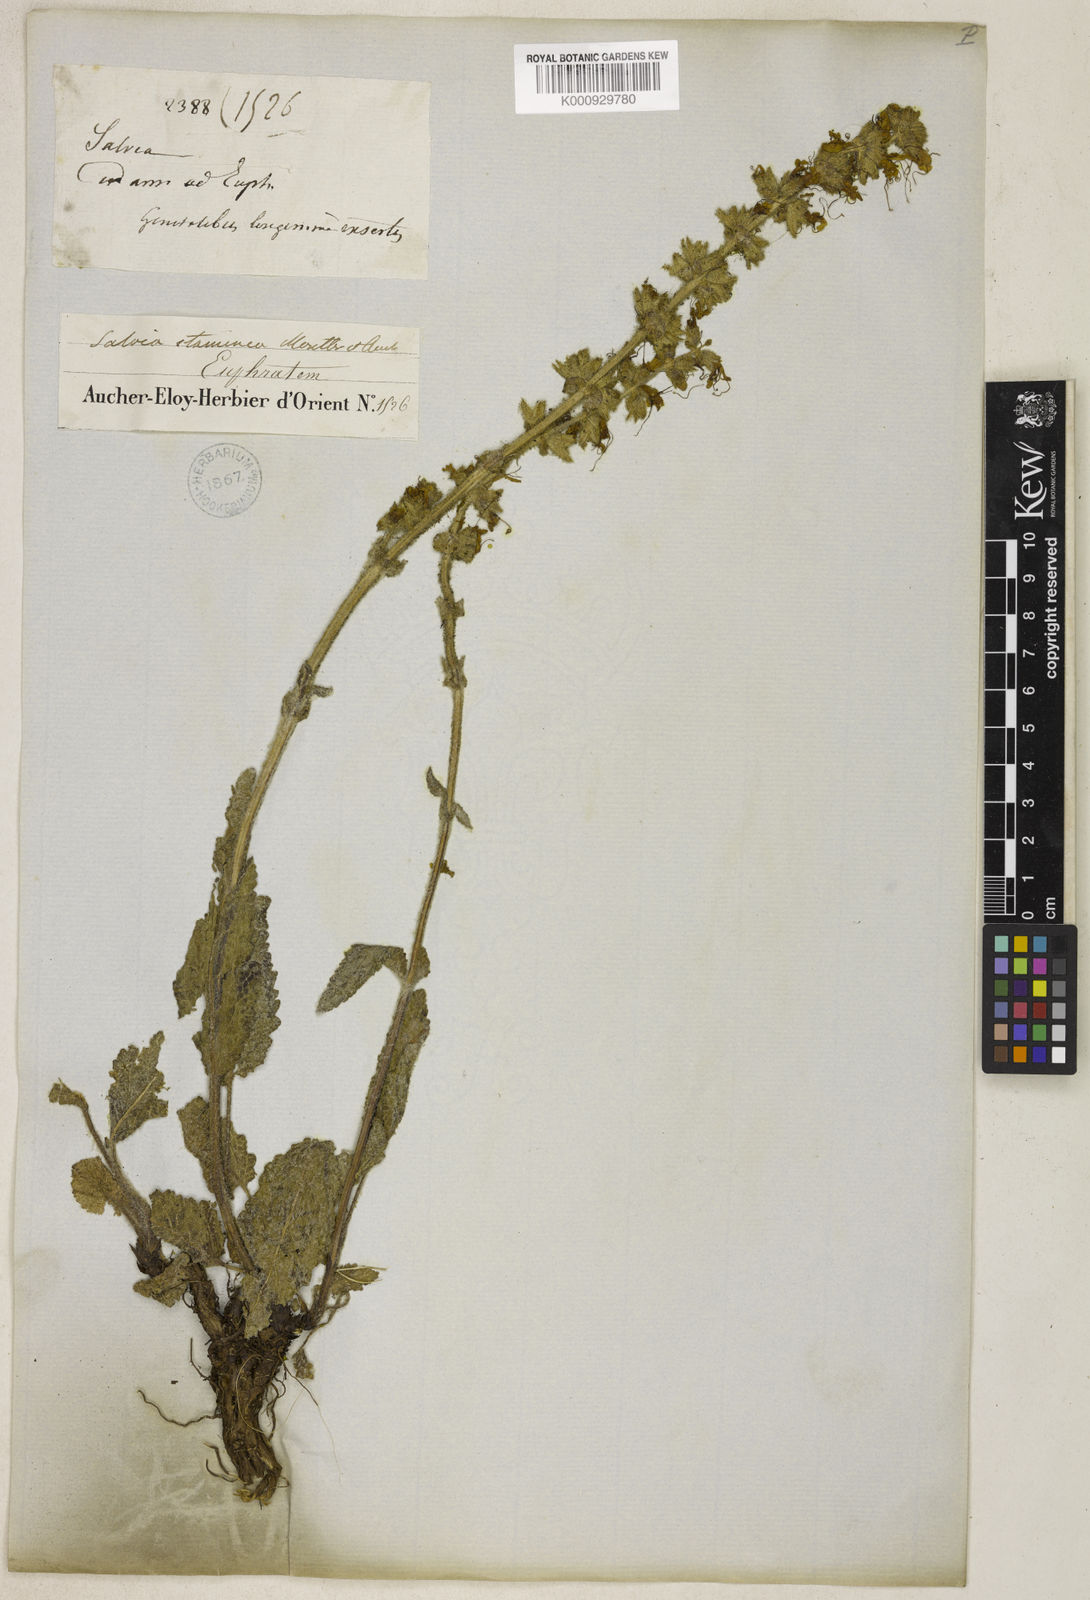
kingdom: Plantae
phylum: Tracheophyta
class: Magnoliopsida
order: Lamiales
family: Lamiaceae
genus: Salvia
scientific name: Salvia staminea
